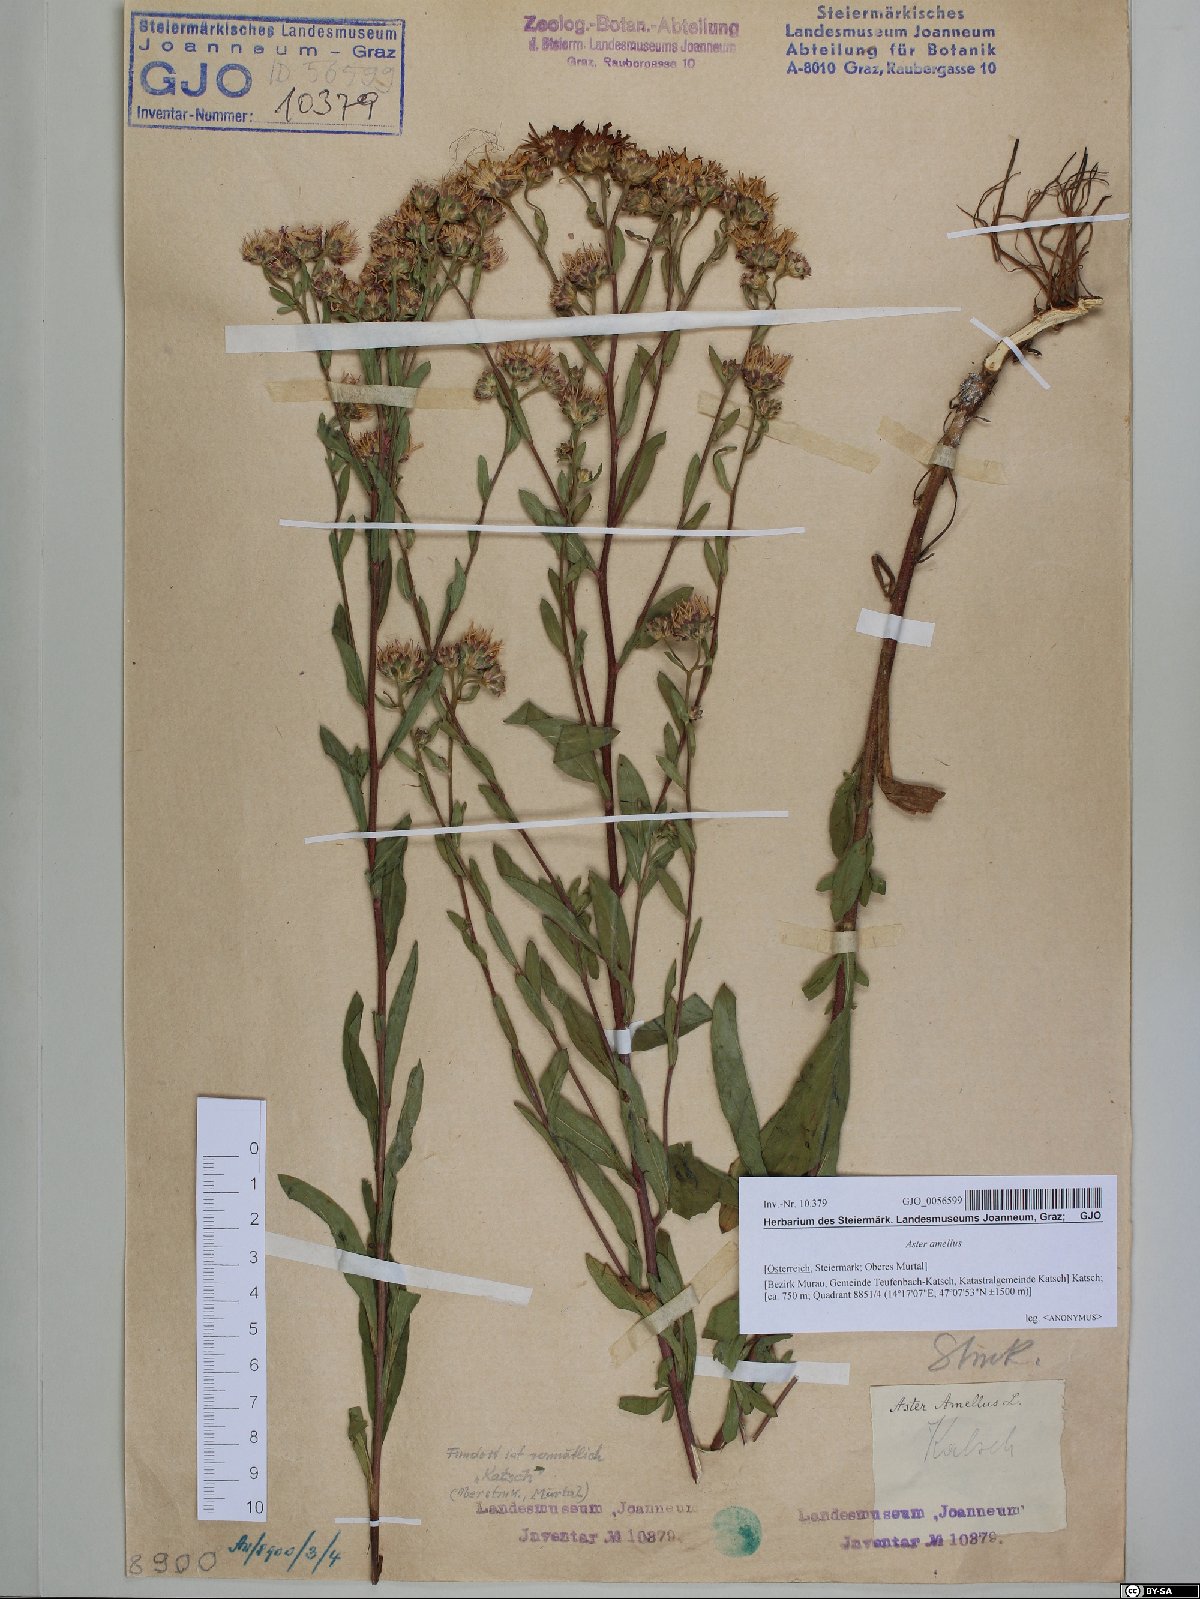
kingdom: Plantae
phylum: Tracheophyta
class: Magnoliopsida
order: Asterales
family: Asteraceae
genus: Aster
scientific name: Aster amellus
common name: European michaelmas daisy
